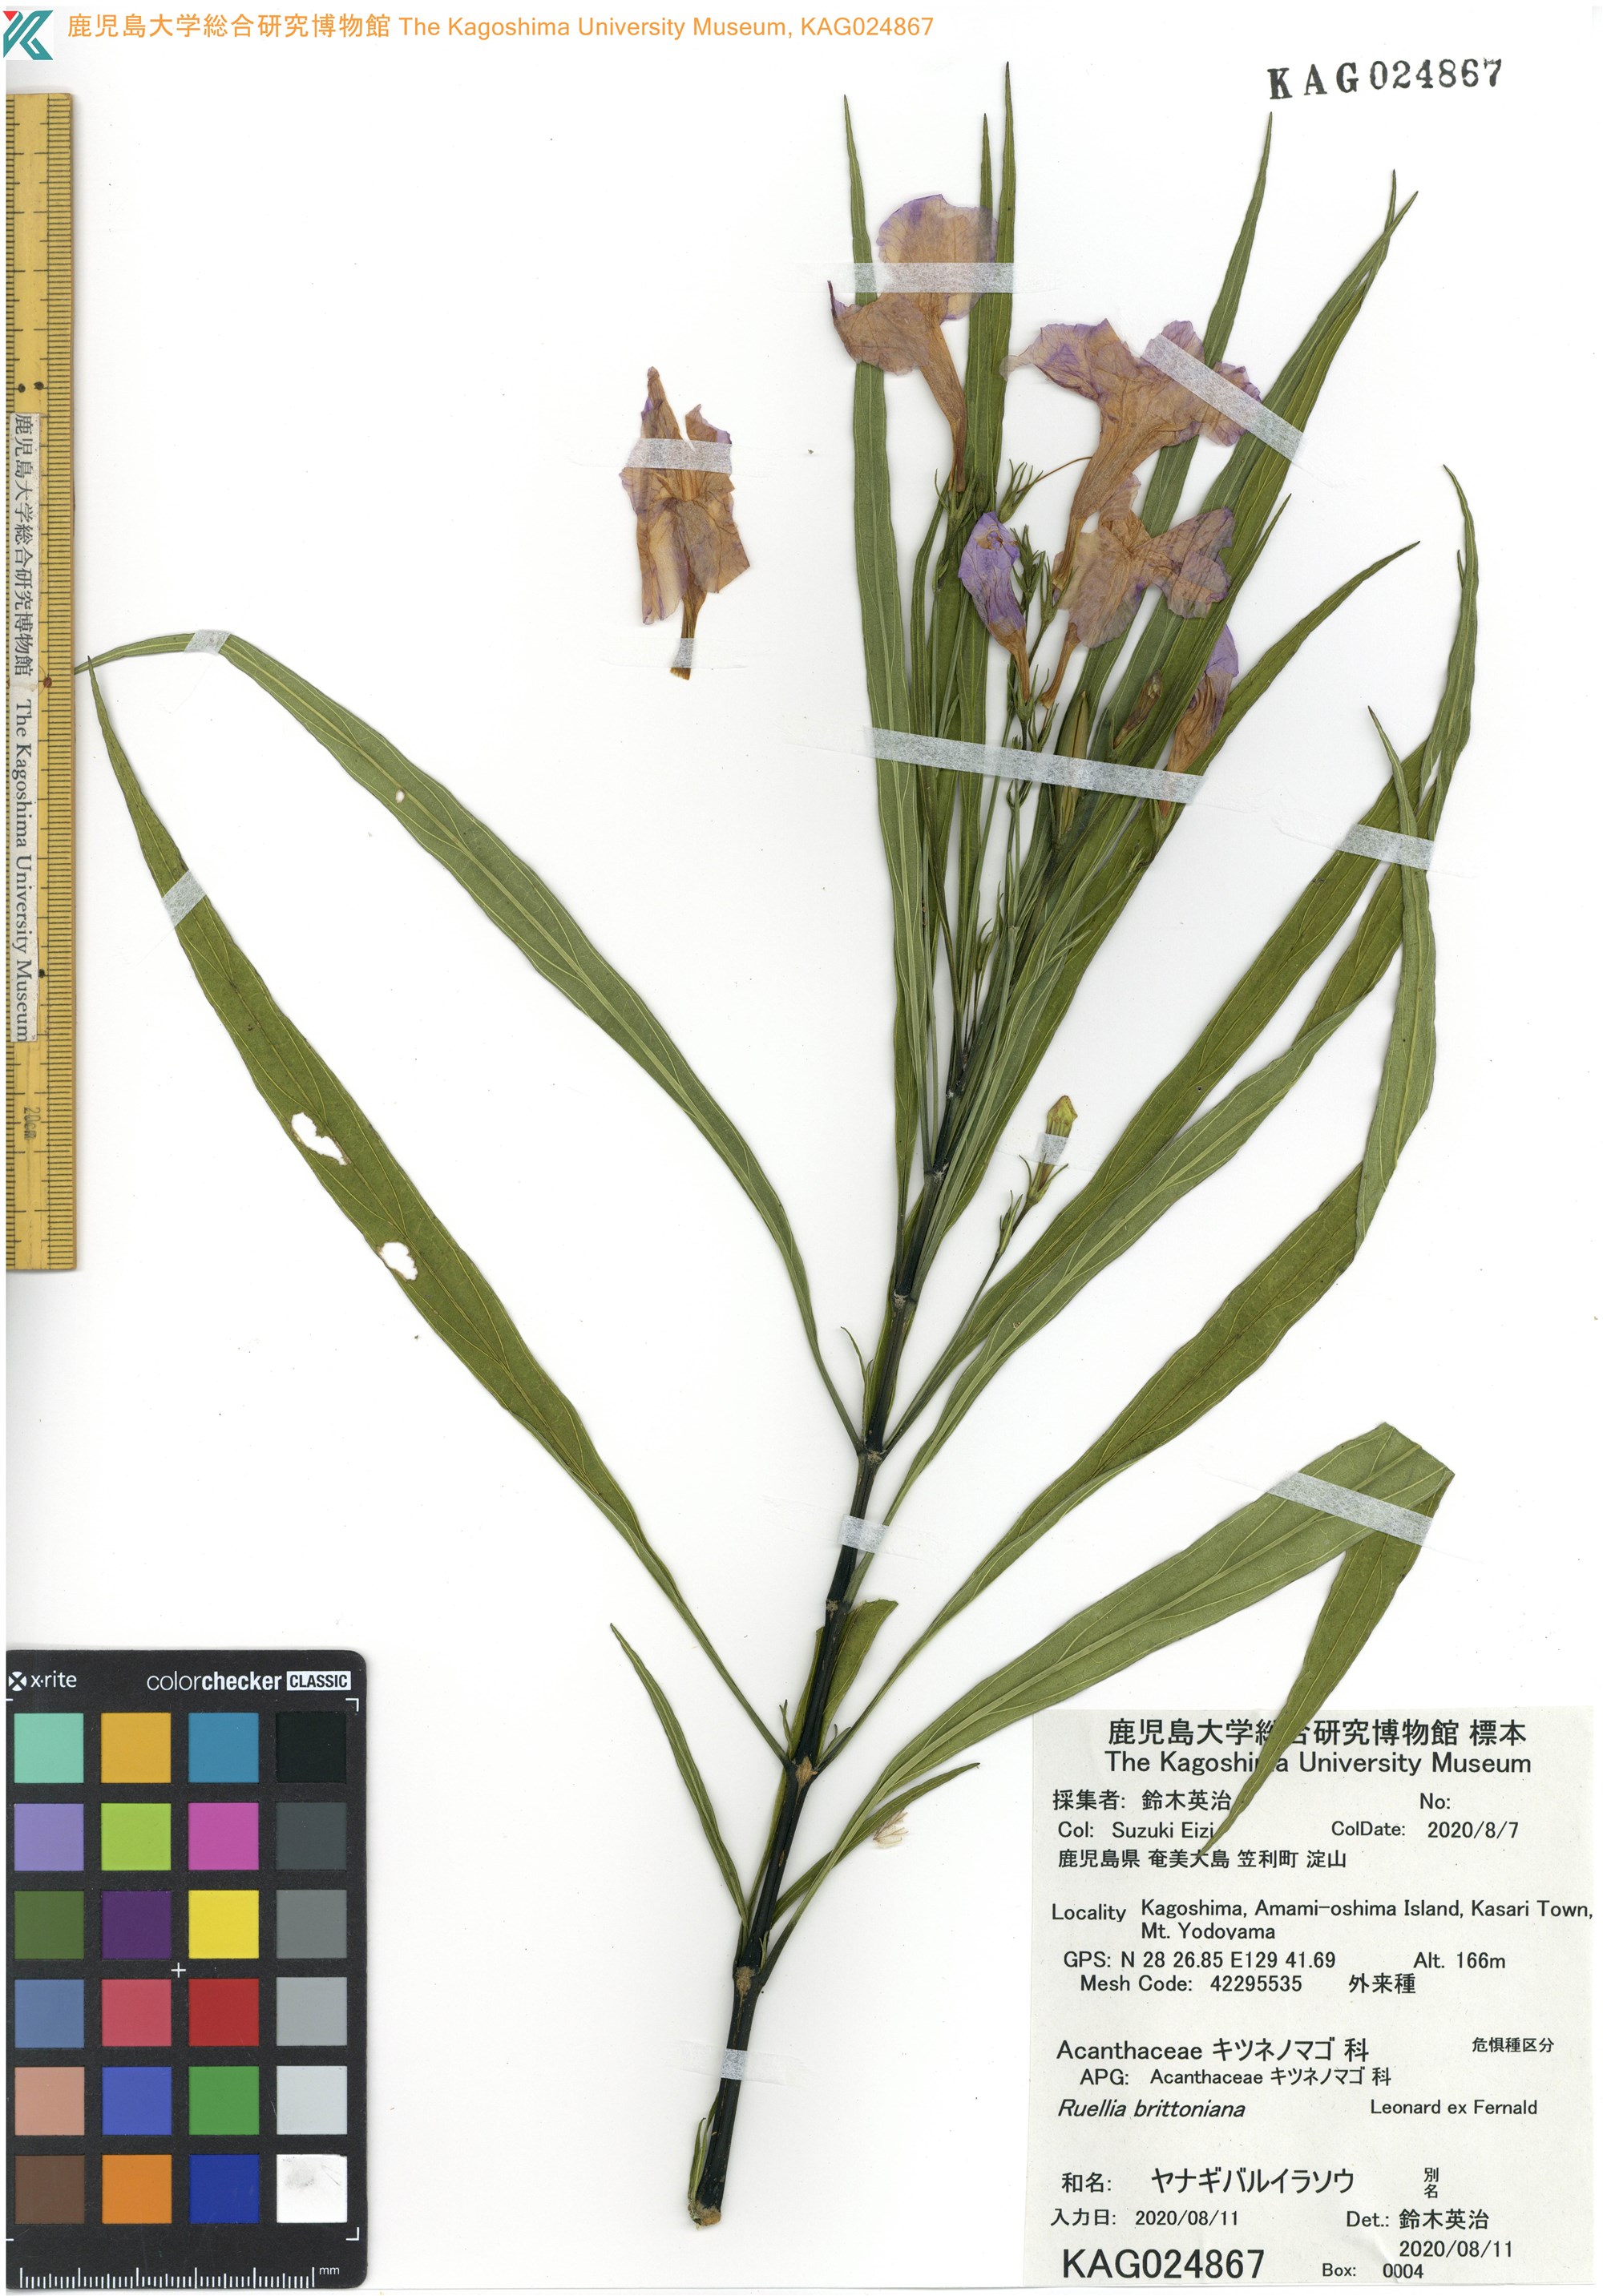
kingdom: Plantae
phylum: Tracheophyta
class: Magnoliopsida
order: Lamiales
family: Acanthaceae
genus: Ruellia
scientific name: Ruellia simplex
